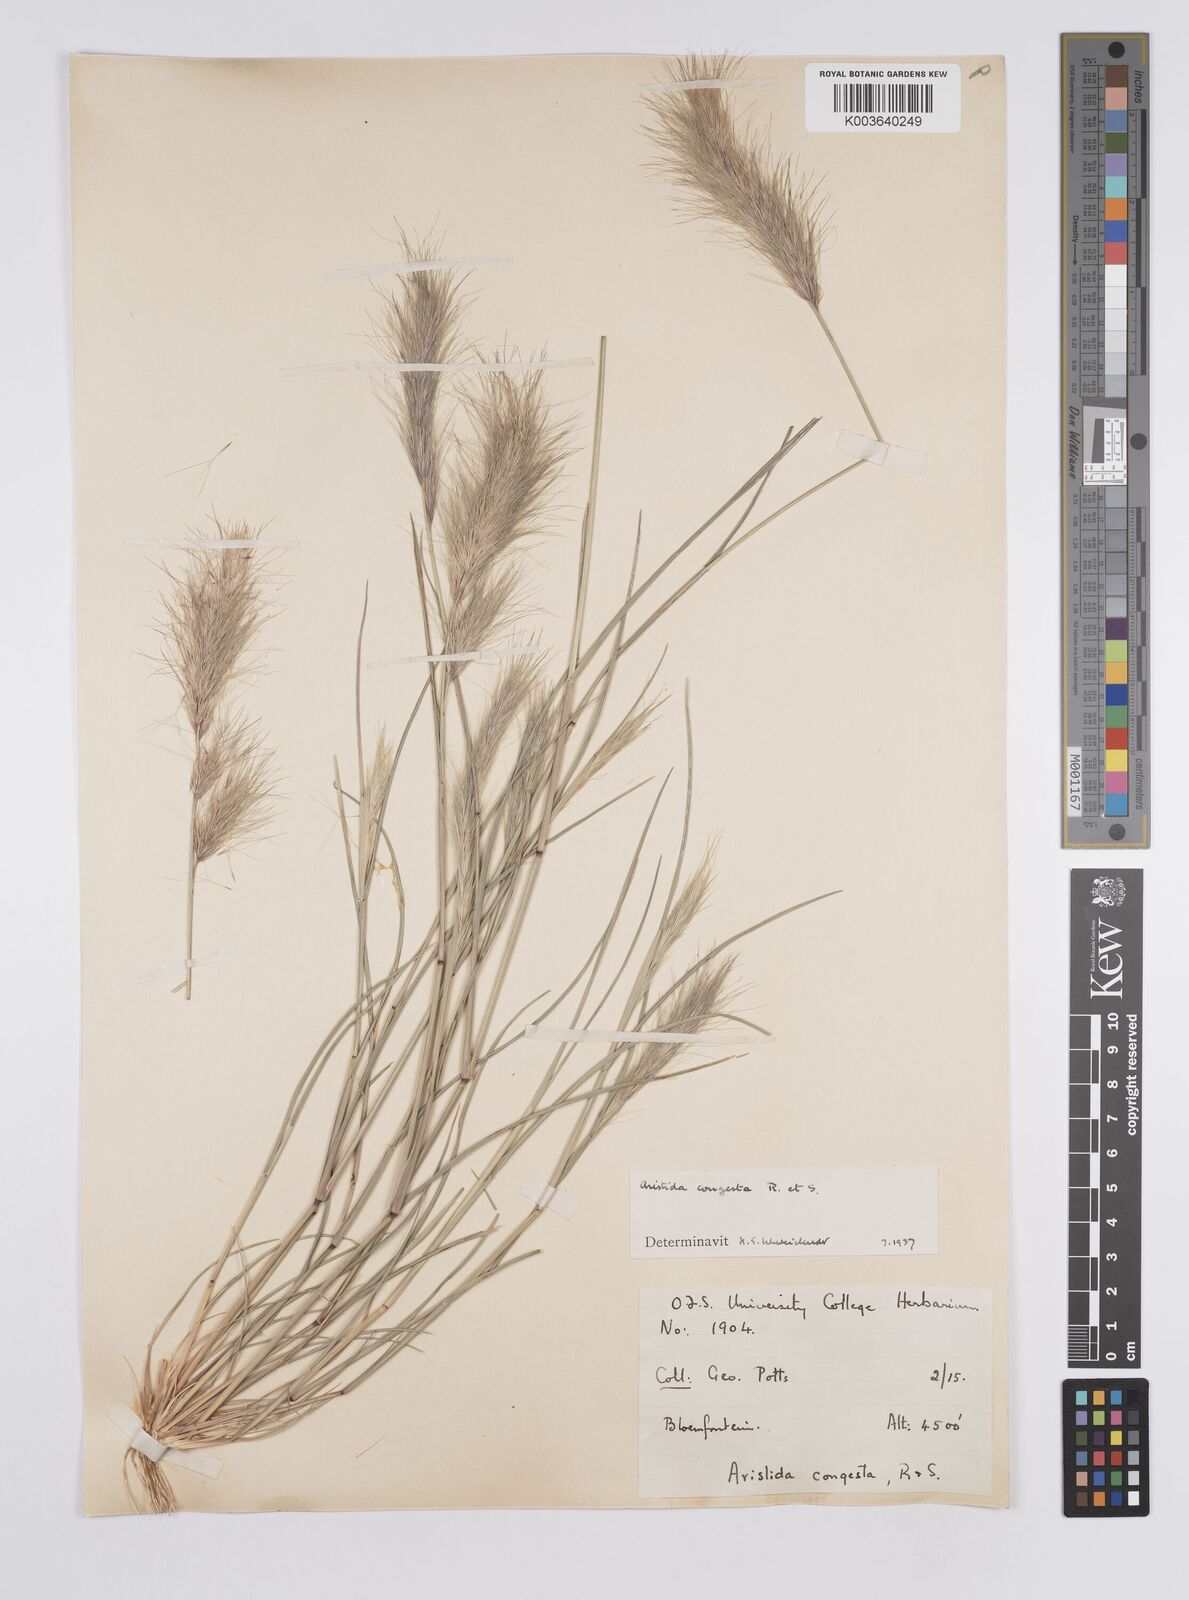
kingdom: Plantae
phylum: Tracheophyta
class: Liliopsida
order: Poales
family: Poaceae
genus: Aristida
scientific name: Aristida congesta
